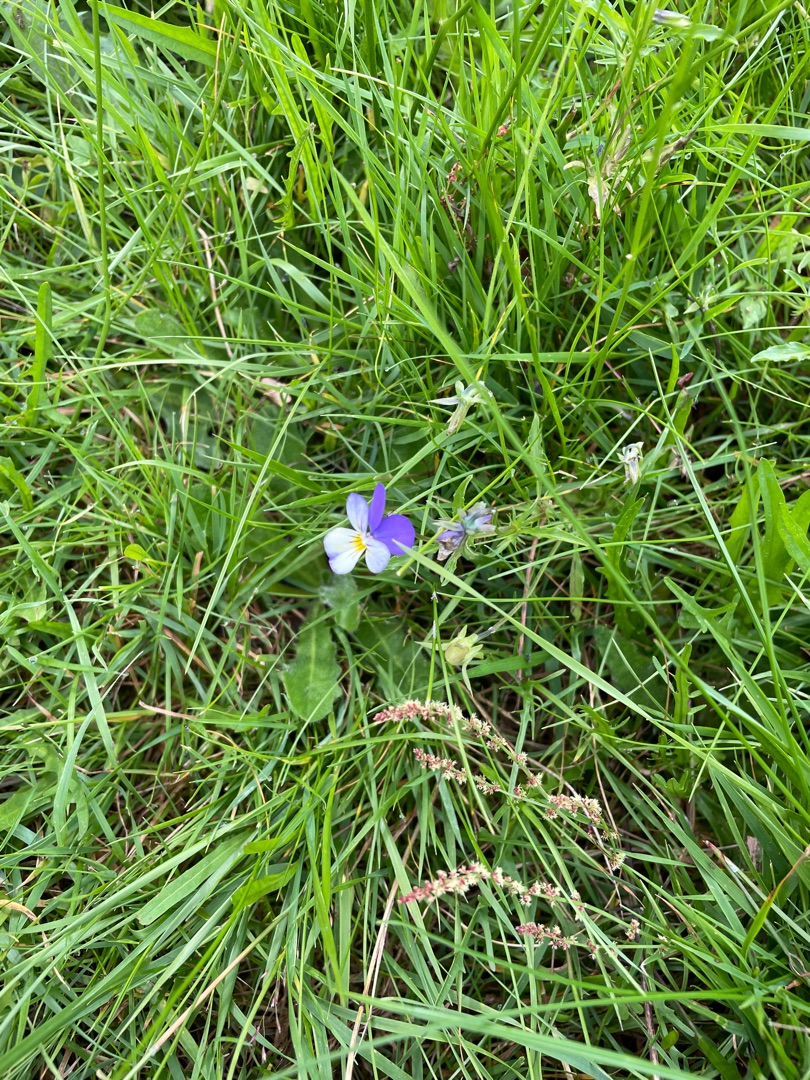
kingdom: Plantae
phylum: Tracheophyta
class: Magnoliopsida
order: Malpighiales
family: Violaceae
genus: Viola
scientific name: Viola tricolor
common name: Stedmoderblomst
